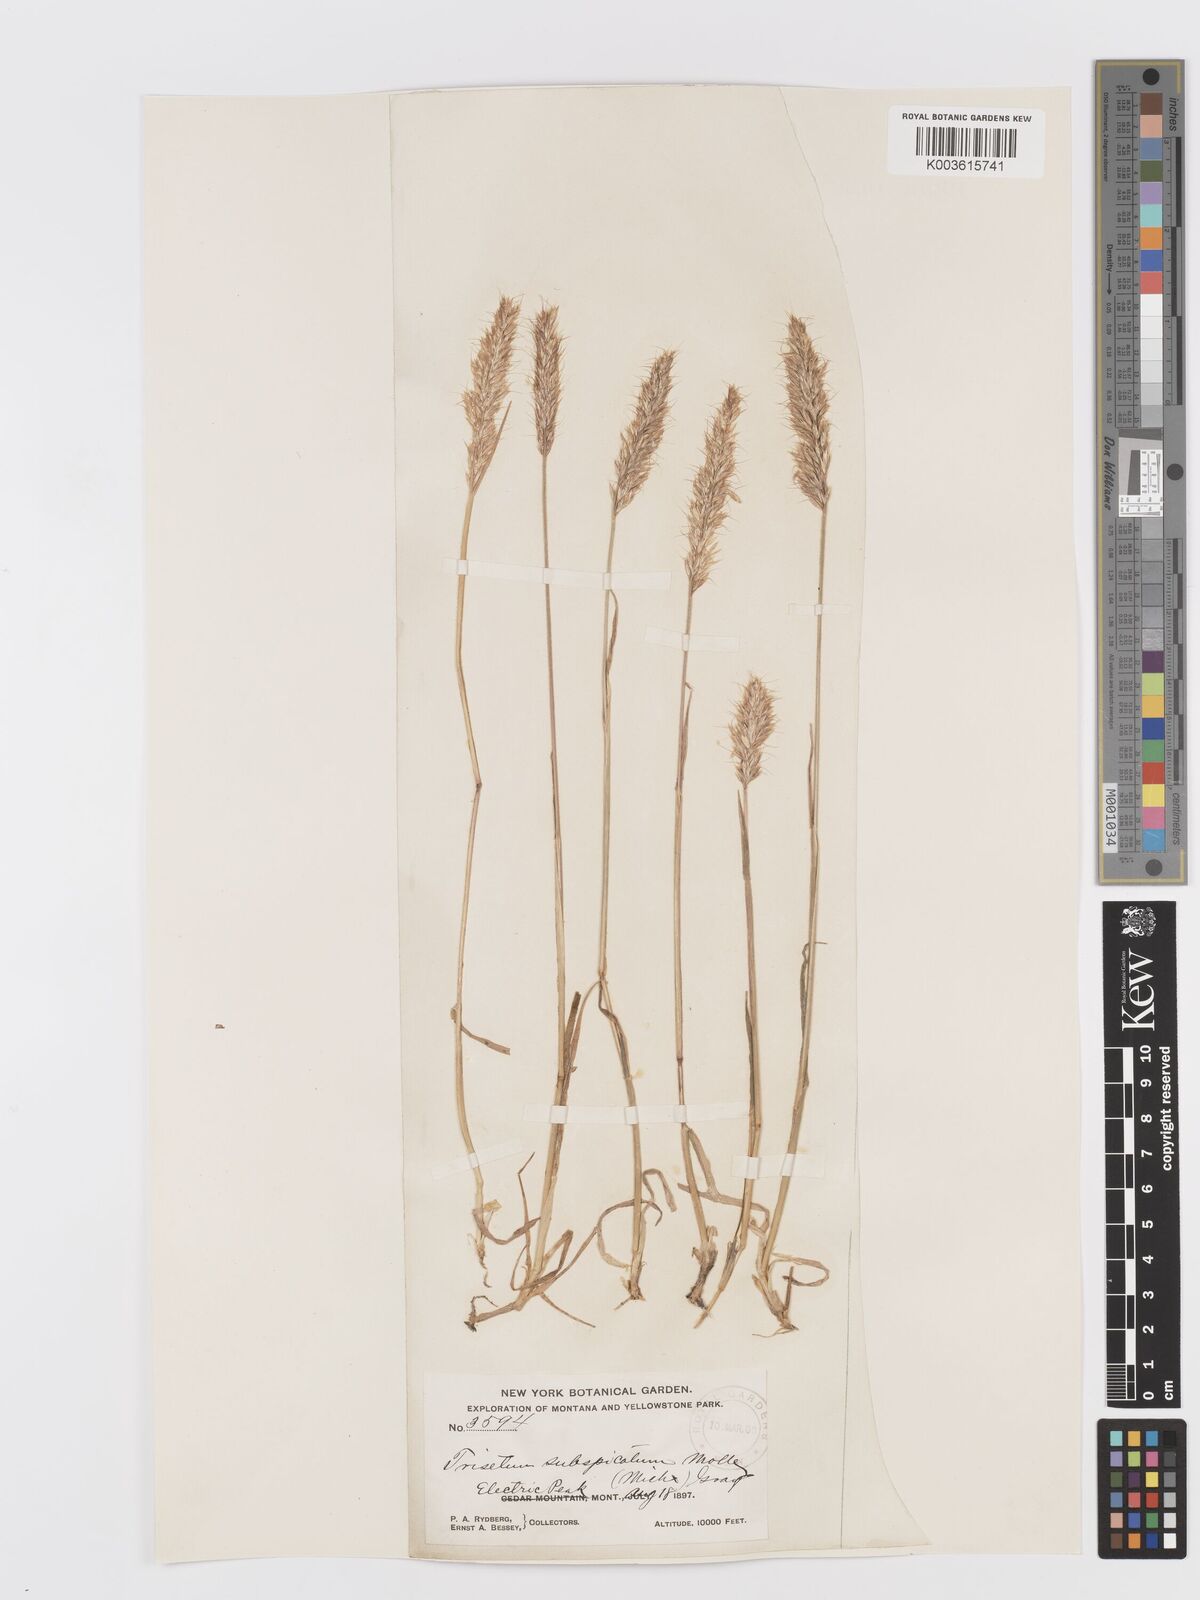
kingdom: Plantae
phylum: Tracheophyta
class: Liliopsida
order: Poales
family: Poaceae
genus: Koeleria
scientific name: Koeleria spicata
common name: Mountain trisetum
